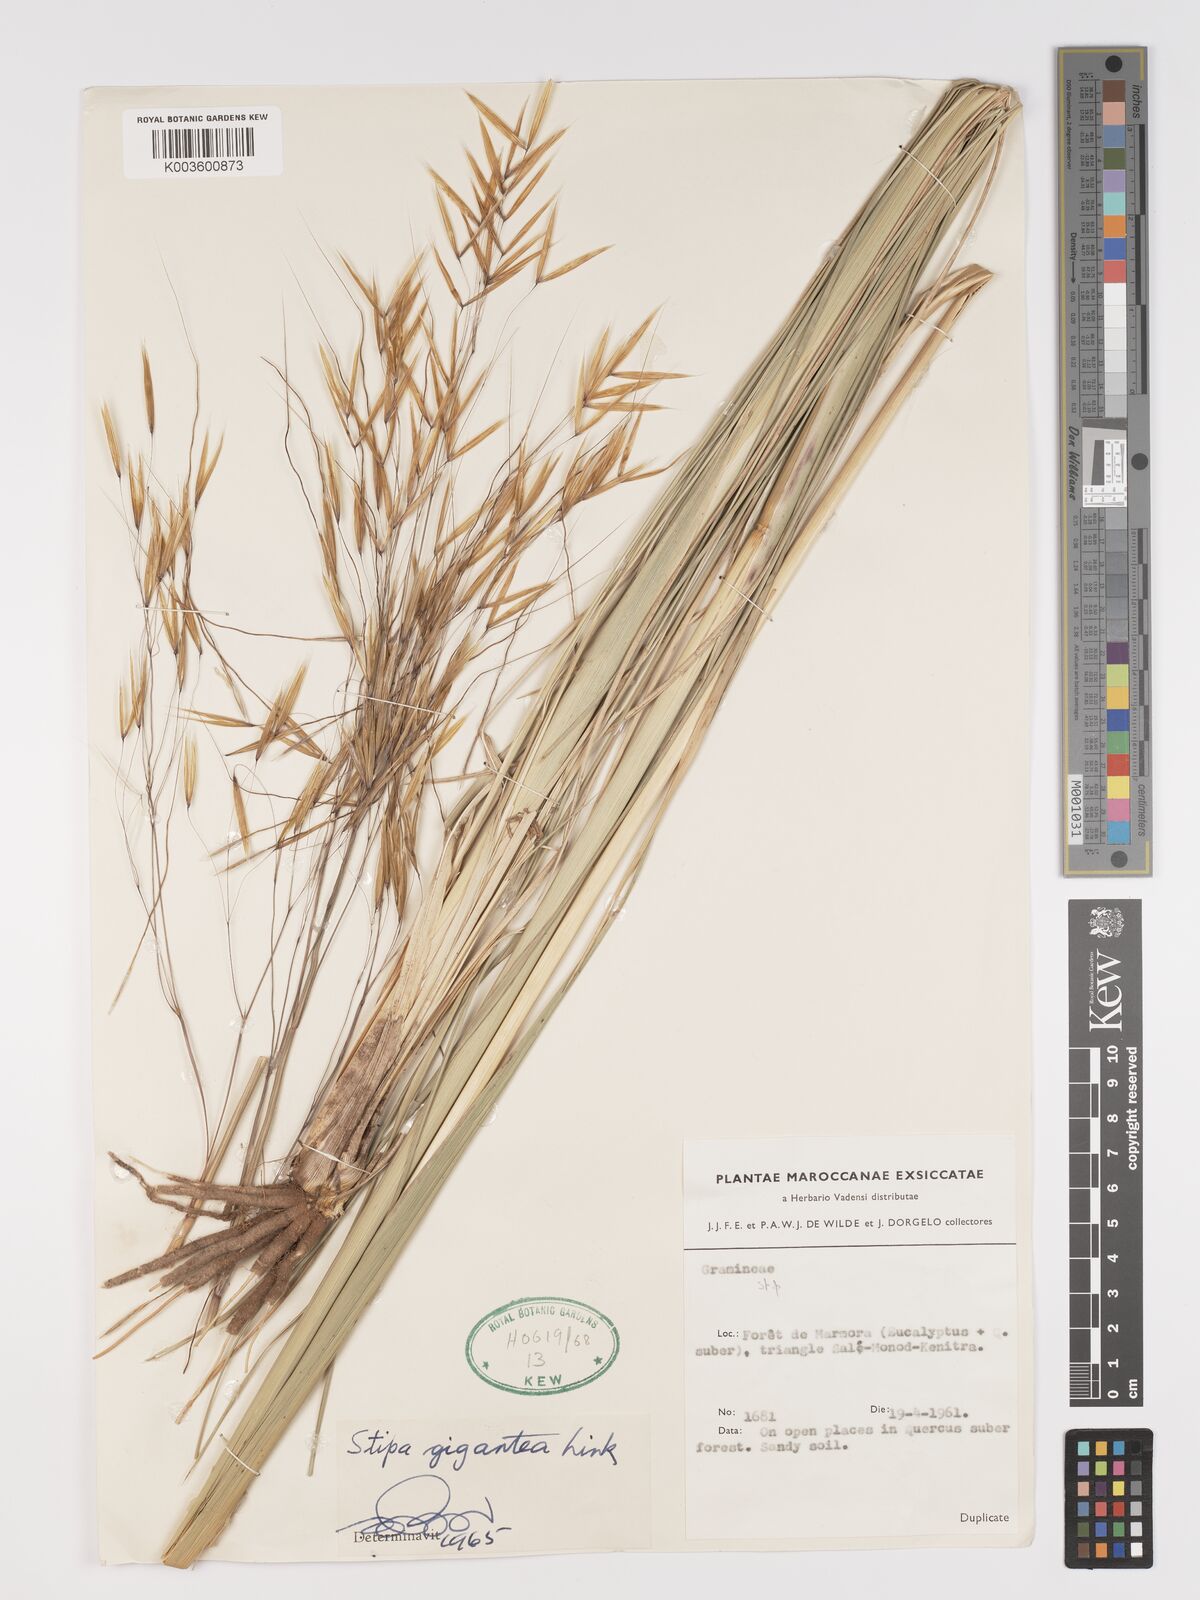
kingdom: Plantae
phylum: Tracheophyta
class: Liliopsida
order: Poales
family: Poaceae
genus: Stipa
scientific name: Stipa lagascae
